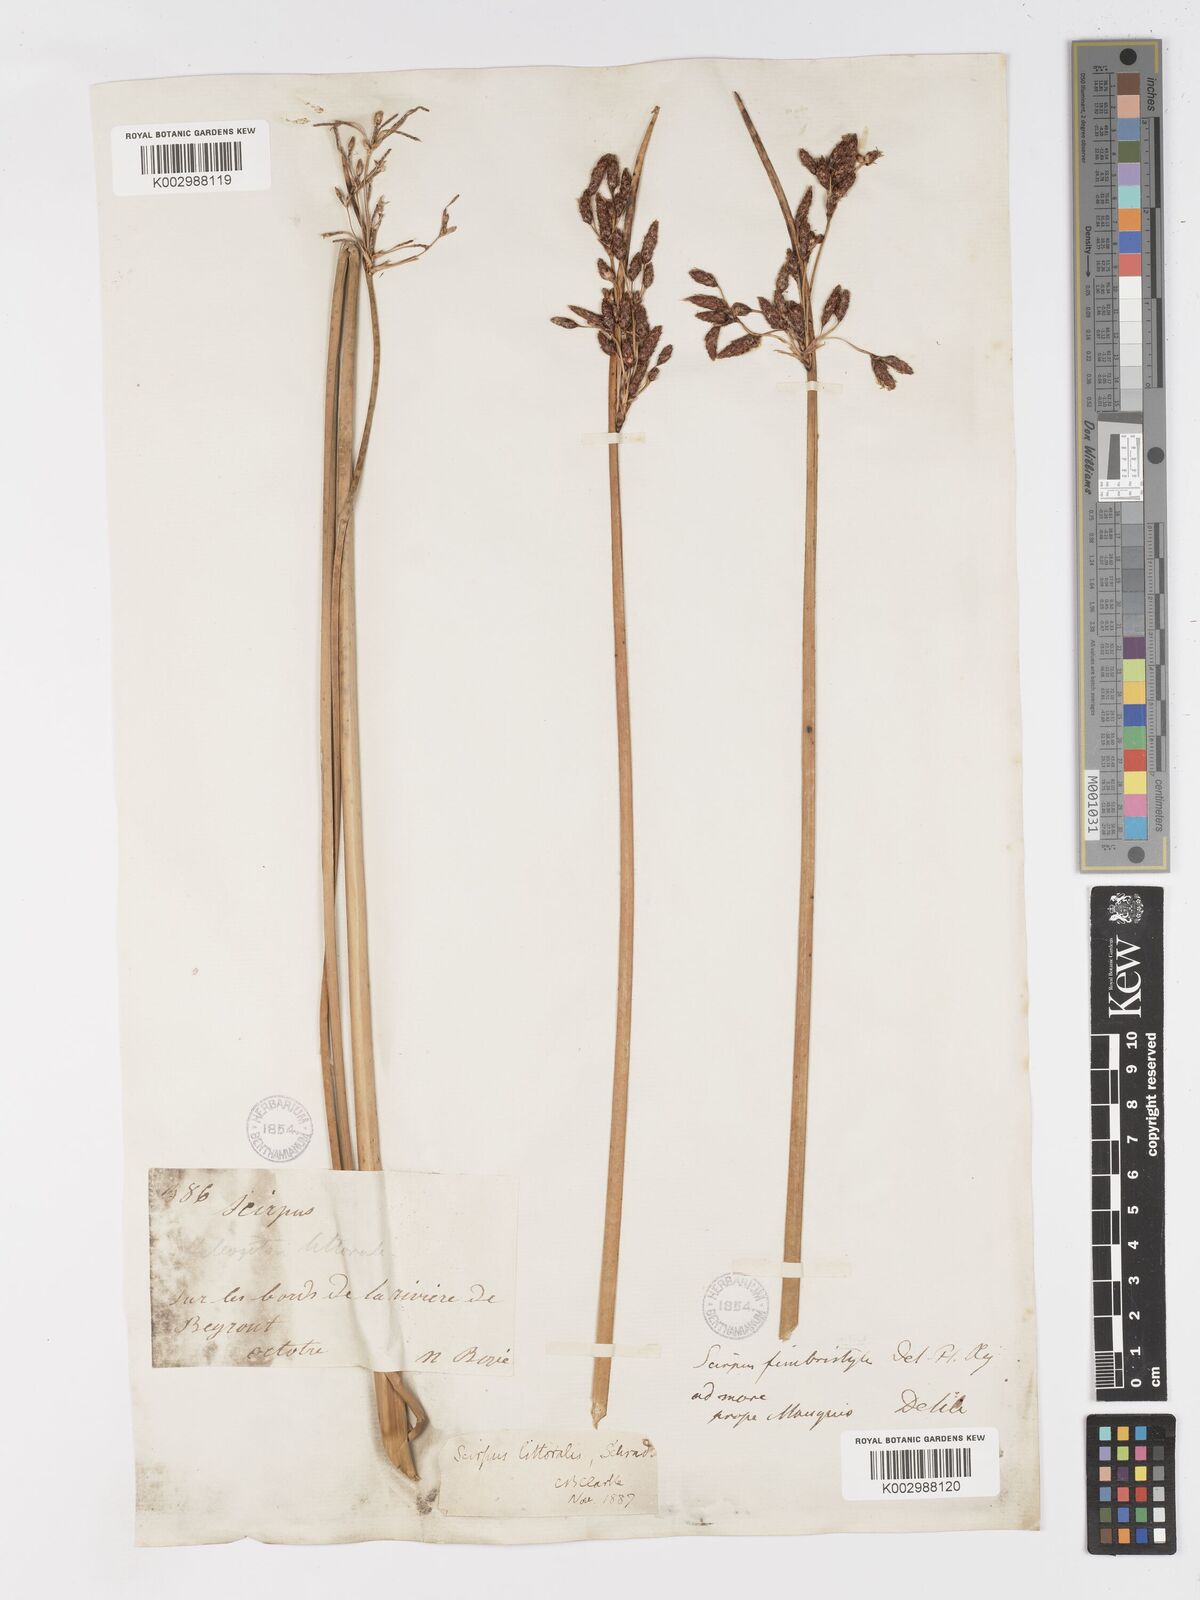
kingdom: Plantae
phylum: Tracheophyta
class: Liliopsida
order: Poales
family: Cyperaceae
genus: Schoenoplectus
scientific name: Schoenoplectus litoralis
